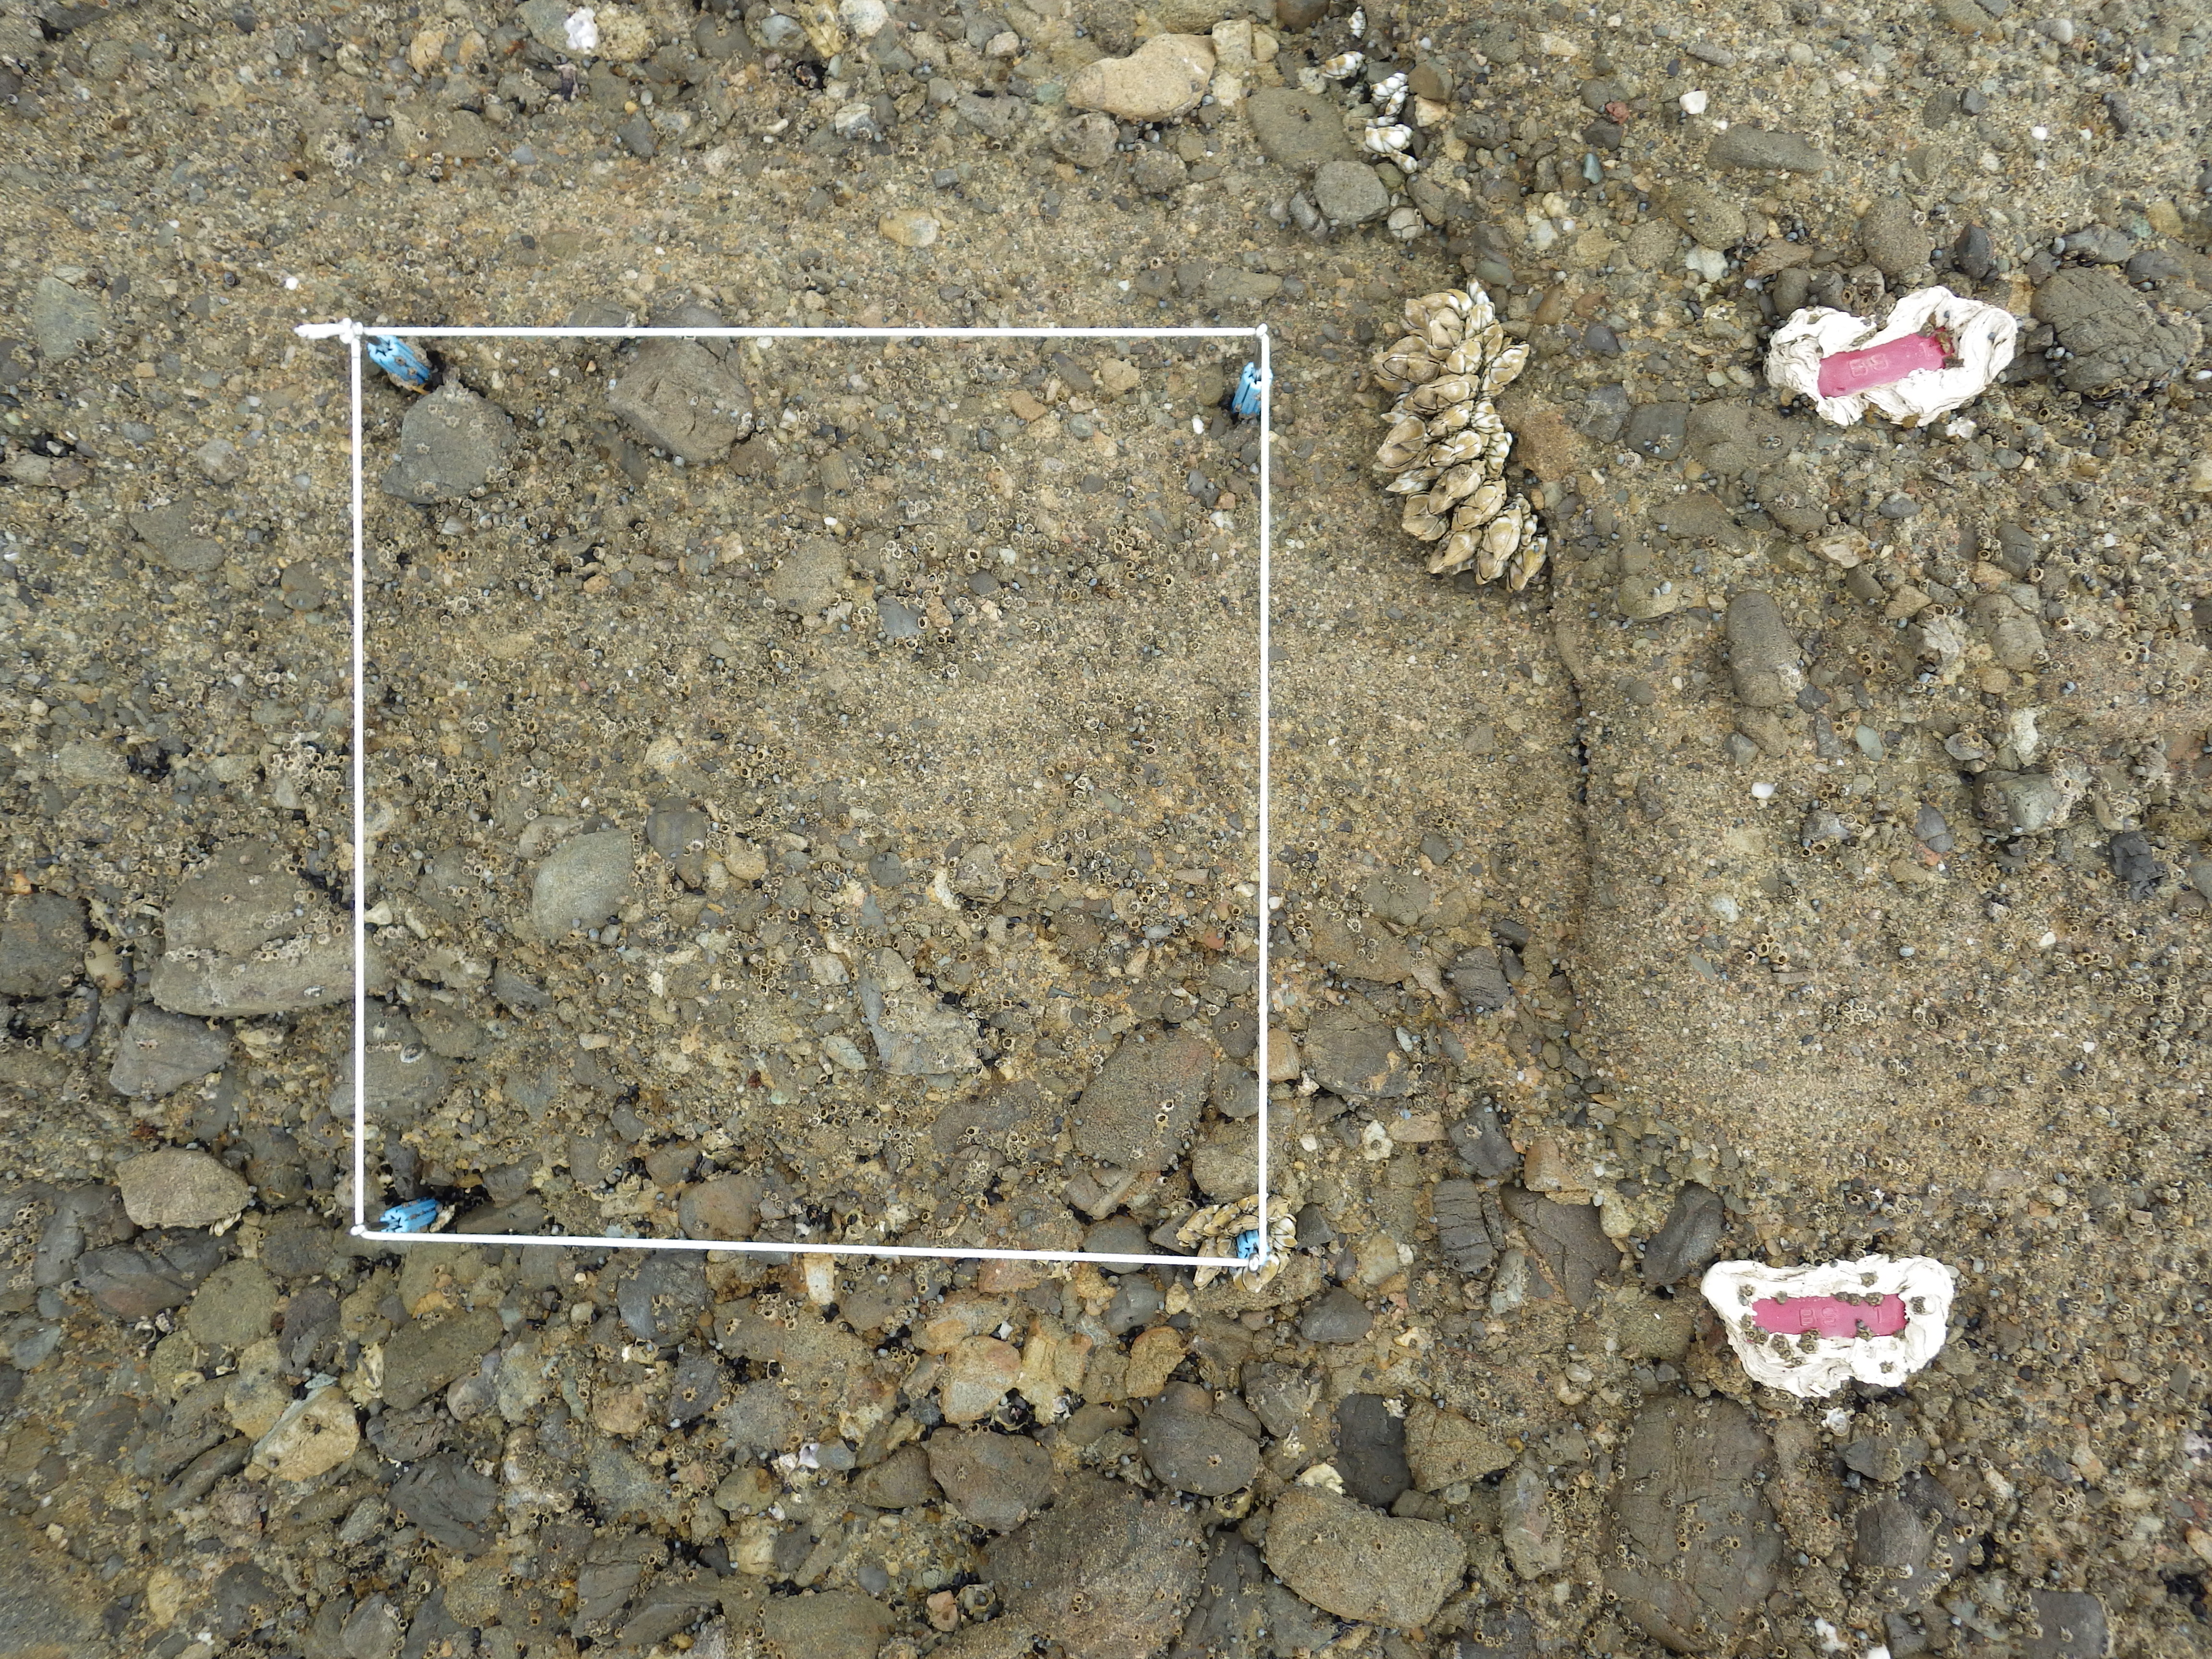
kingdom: Animalia
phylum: Arthropoda
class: Maxillopoda
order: Sessilia
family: Chthamalidae
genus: Chthamalus
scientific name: Chthamalus challengeri
